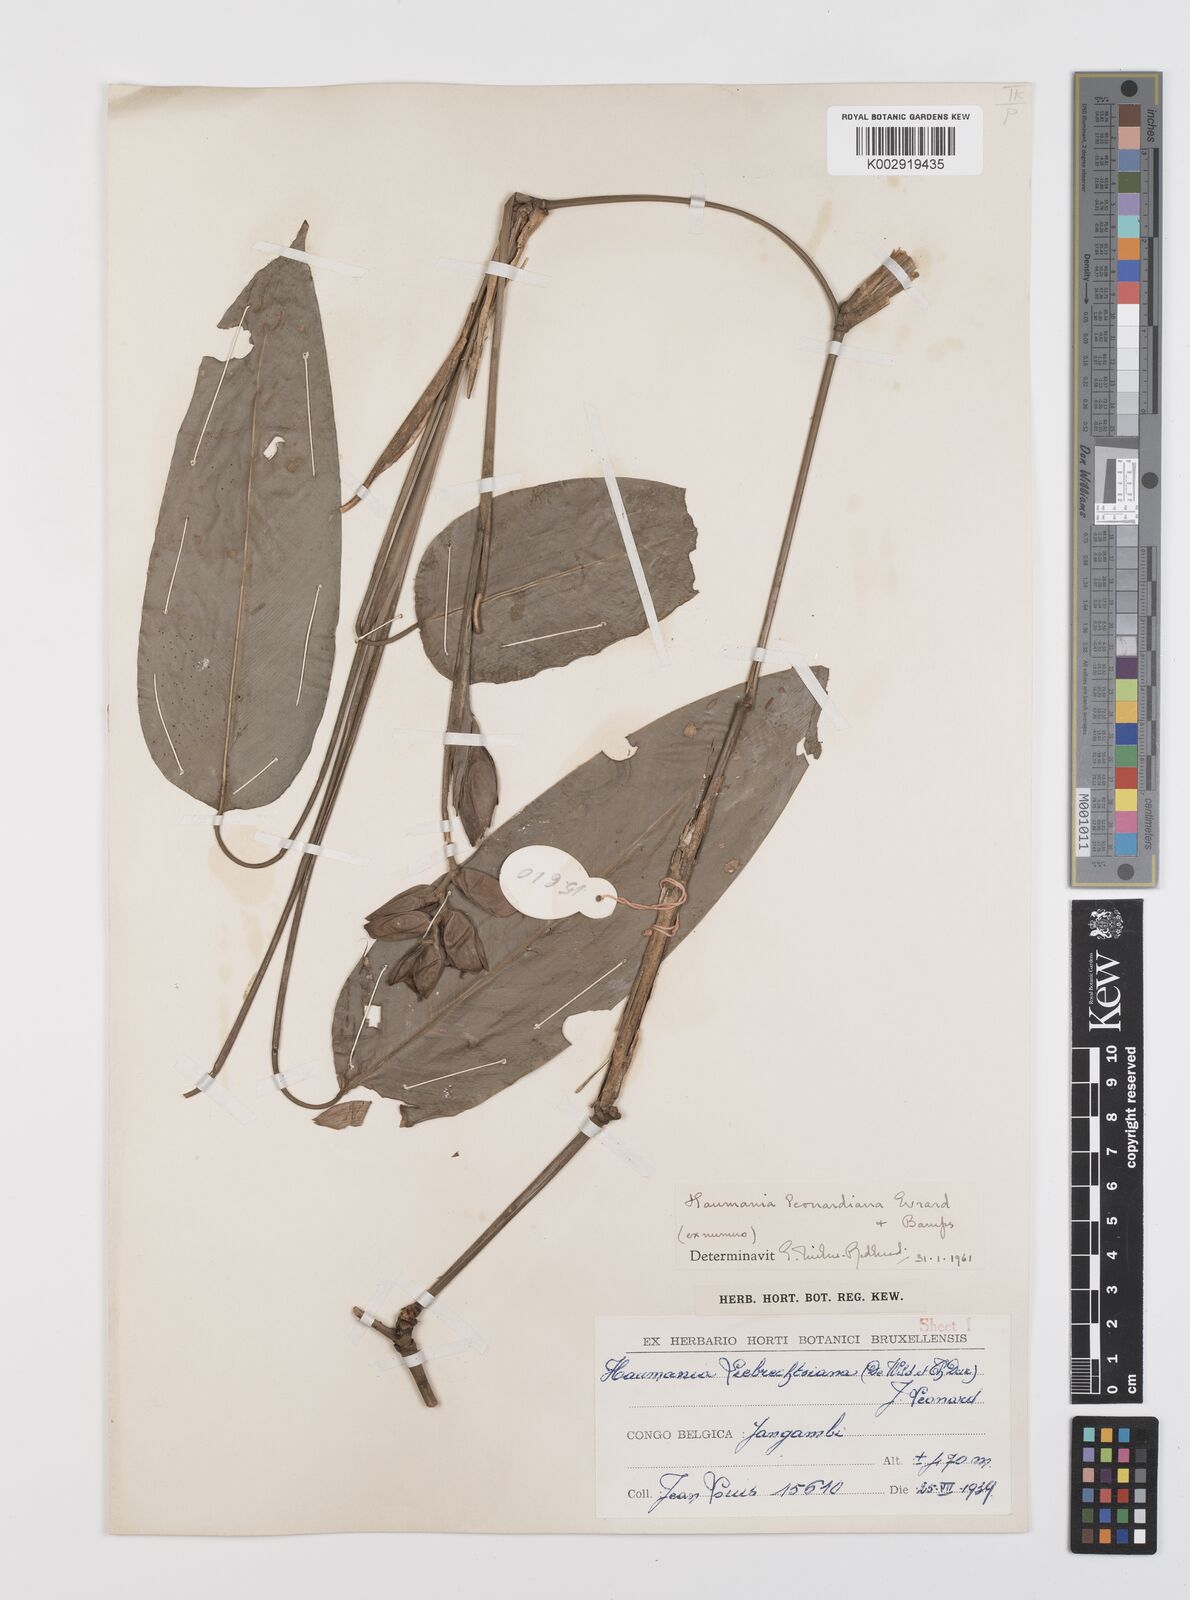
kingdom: Plantae
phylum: Tracheophyta
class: Liliopsida
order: Zingiberales
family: Marantaceae
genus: Haumania
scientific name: Haumania leonardiana
